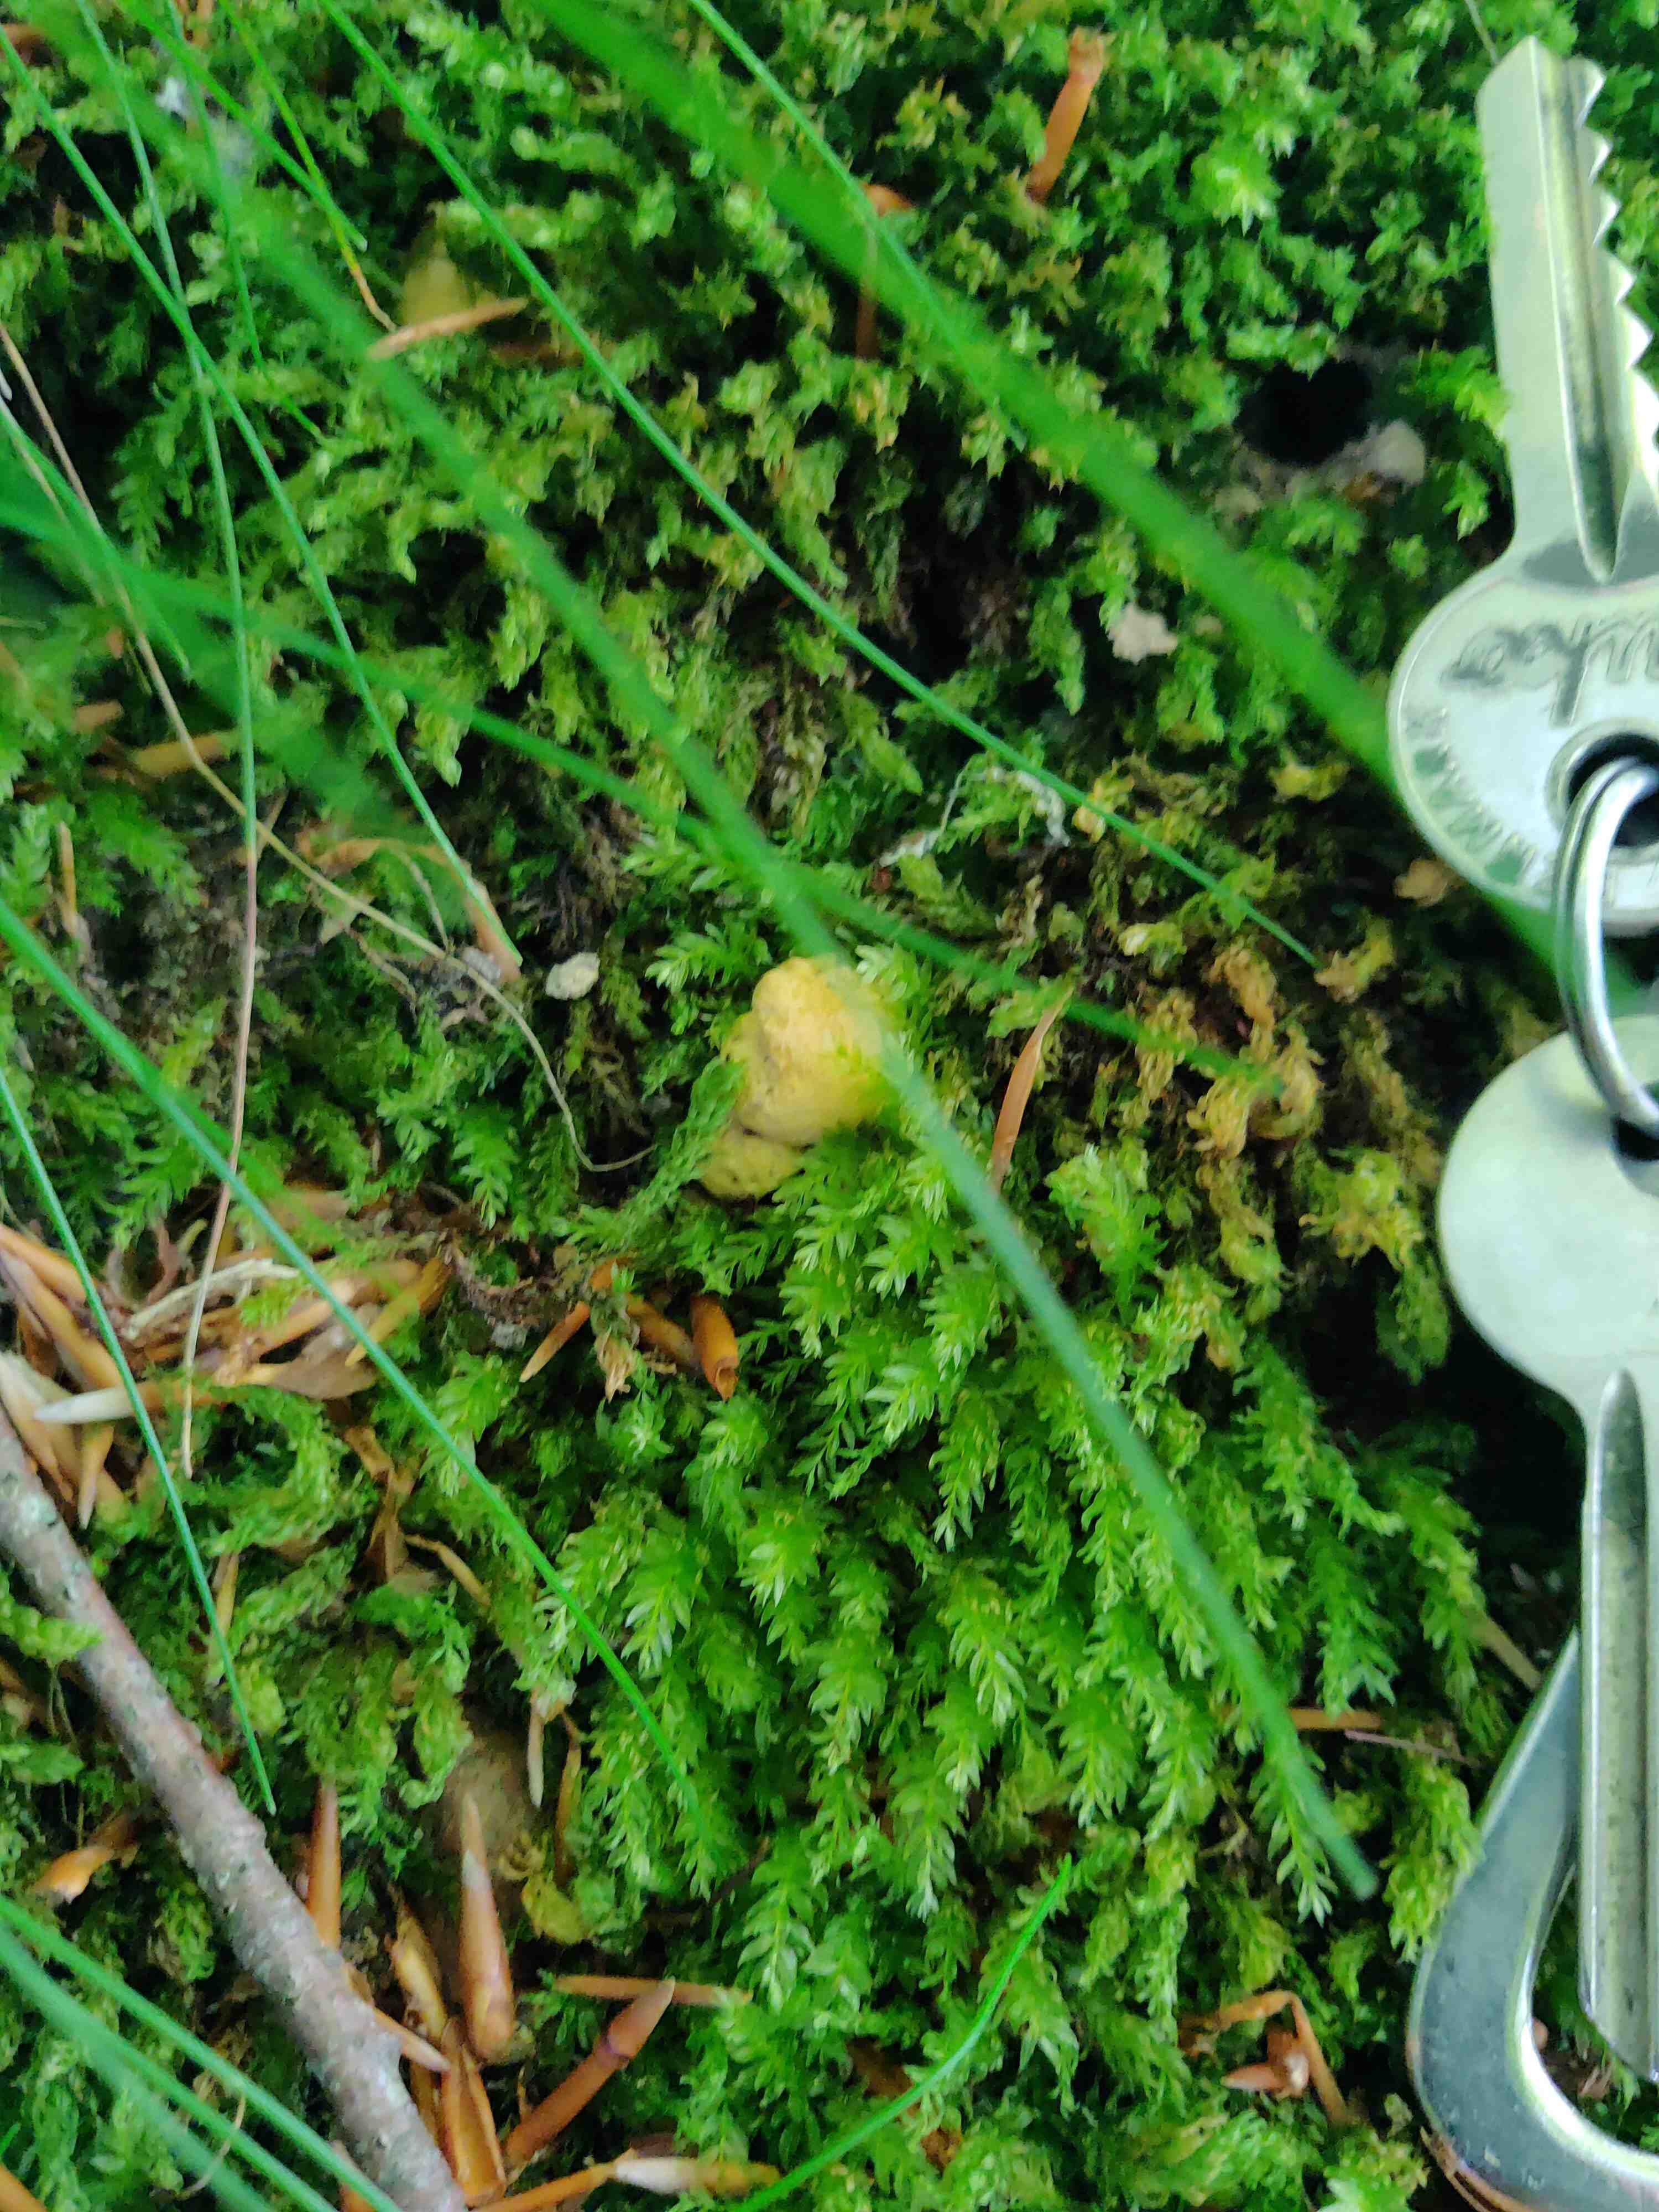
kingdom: Fungi
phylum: Basidiomycota
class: Agaricomycetes
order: Cantharellales
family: Hydnaceae
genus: Cantharellus
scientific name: Cantharellus cibarius
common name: almindelig kantarel
